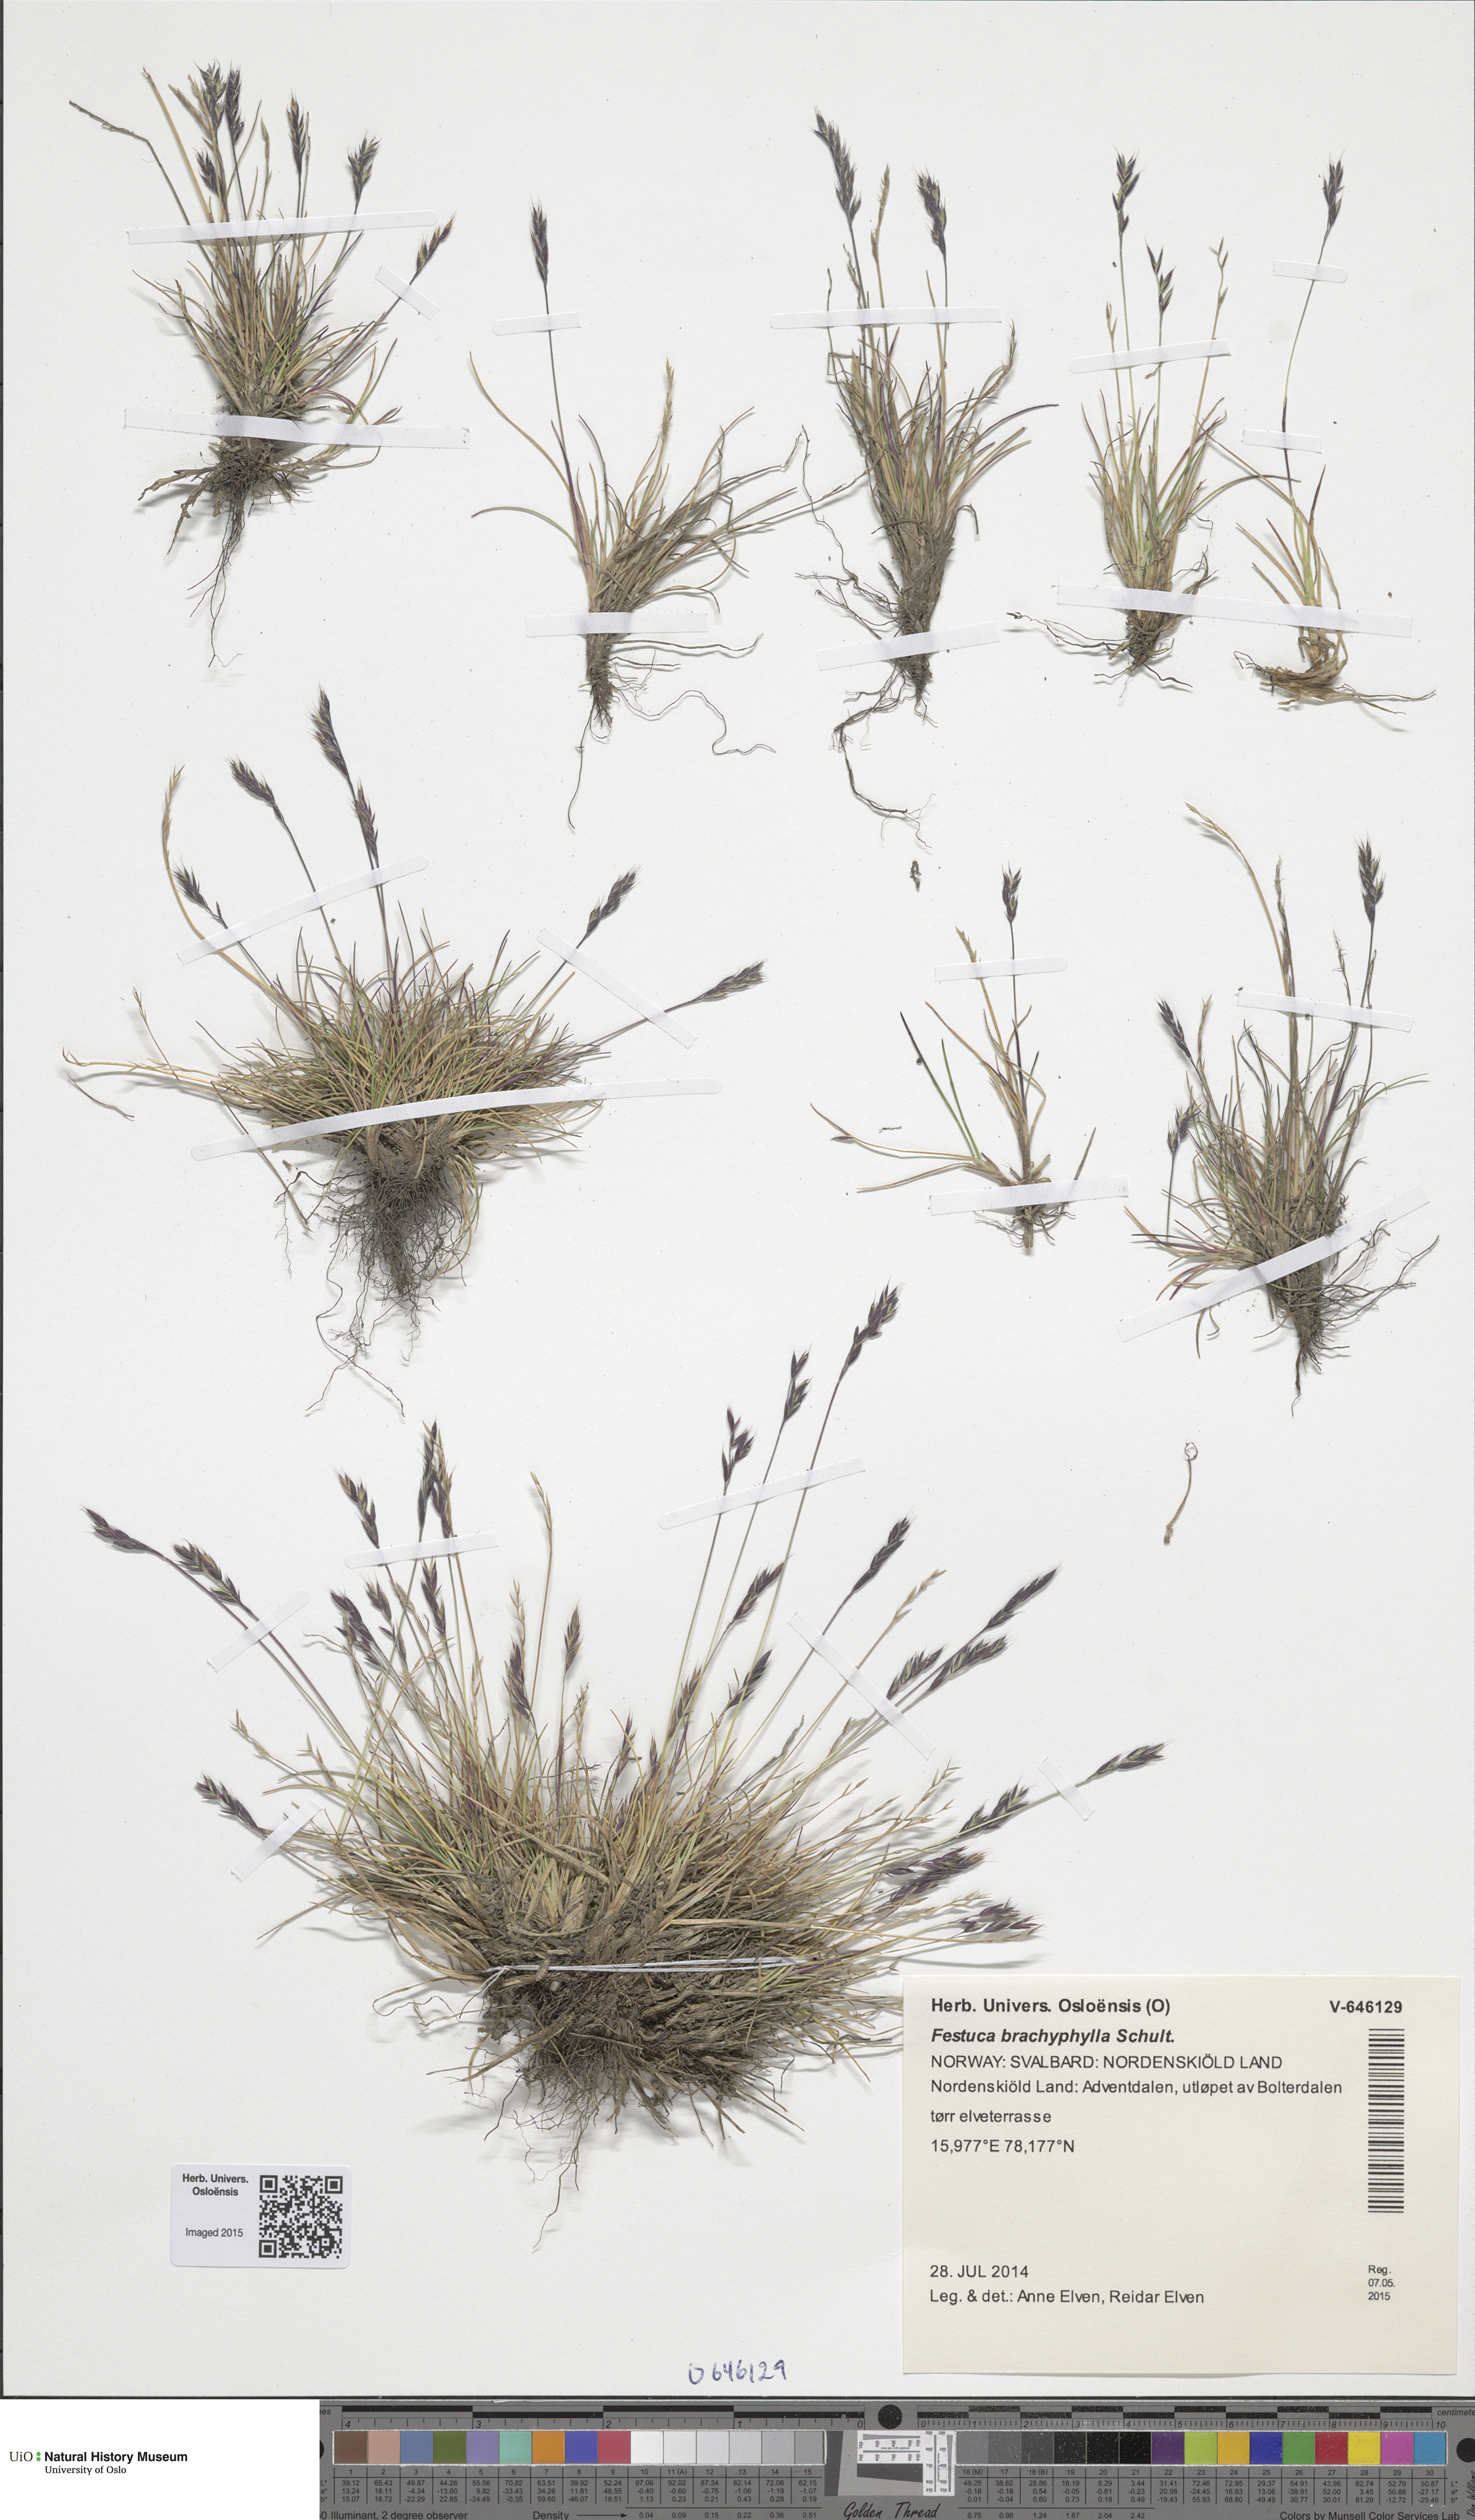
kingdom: Plantae
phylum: Tracheophyta
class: Liliopsida
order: Poales
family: Poaceae
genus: Festuca
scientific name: Festuca brachyphylla
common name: Alpine fescue
